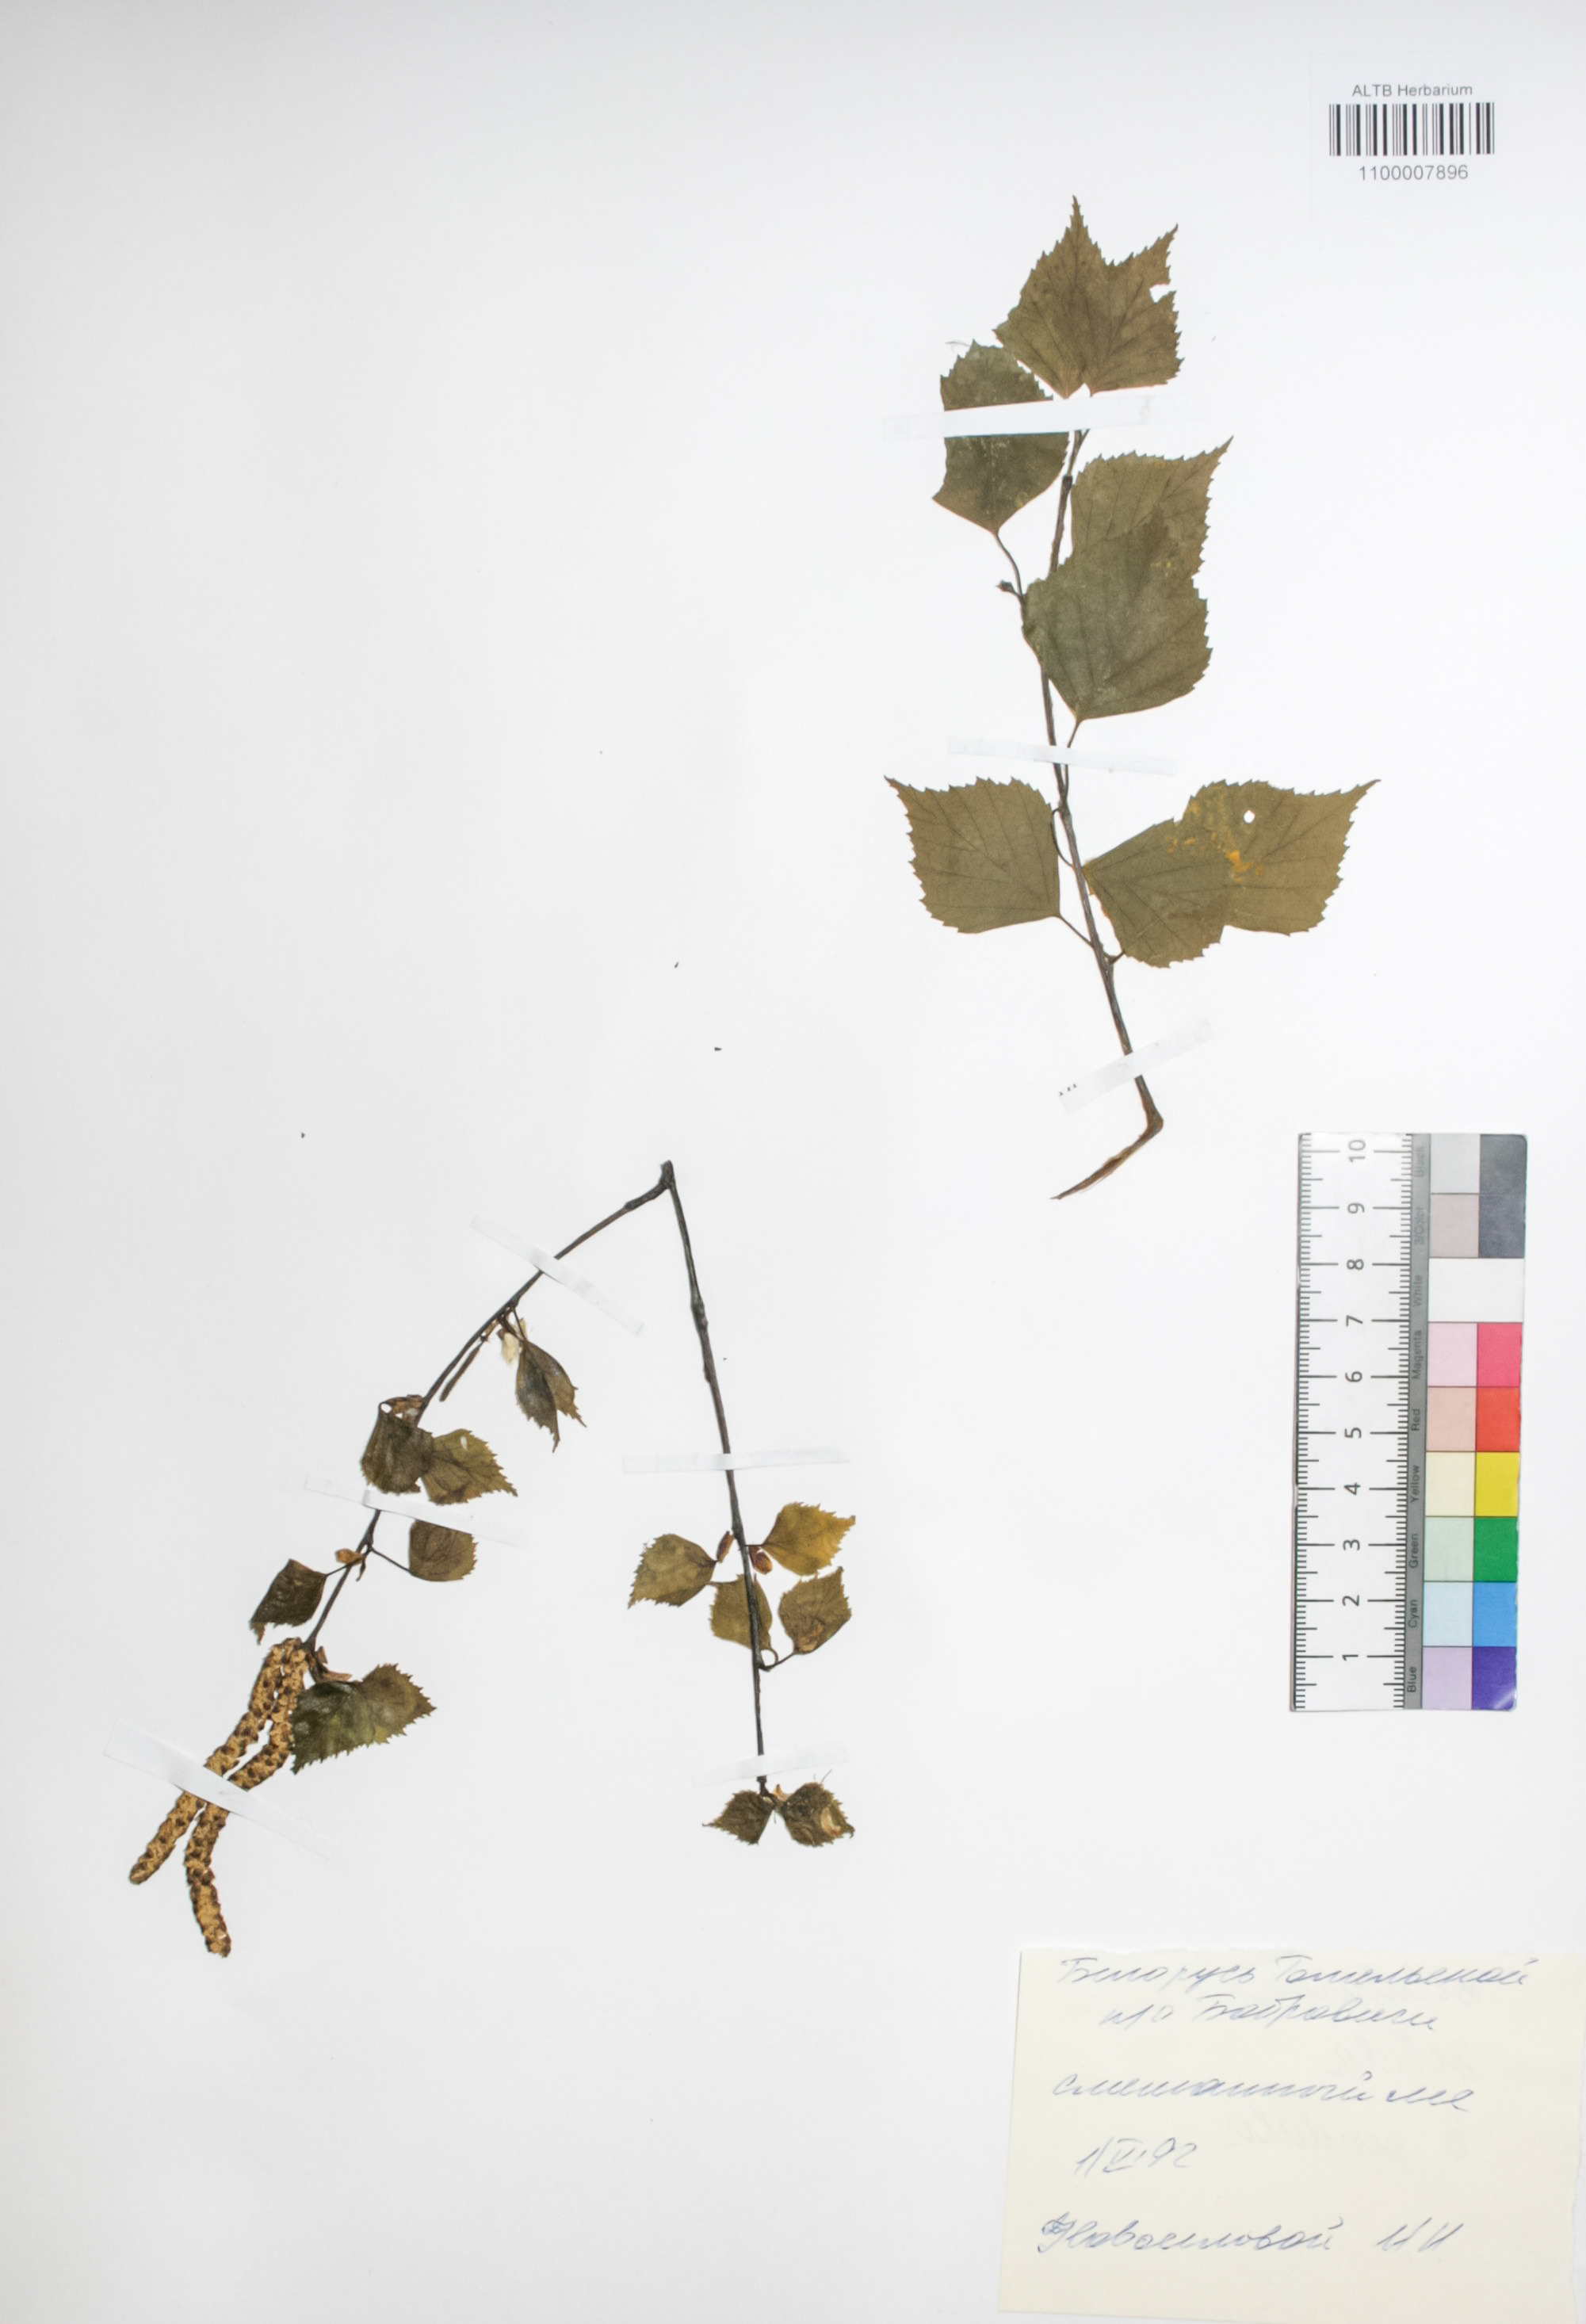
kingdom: Plantae
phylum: Tracheophyta
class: Magnoliopsida
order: Fagales
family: Betulaceae
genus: Betula
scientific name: Betula pendula
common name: Silver birch
